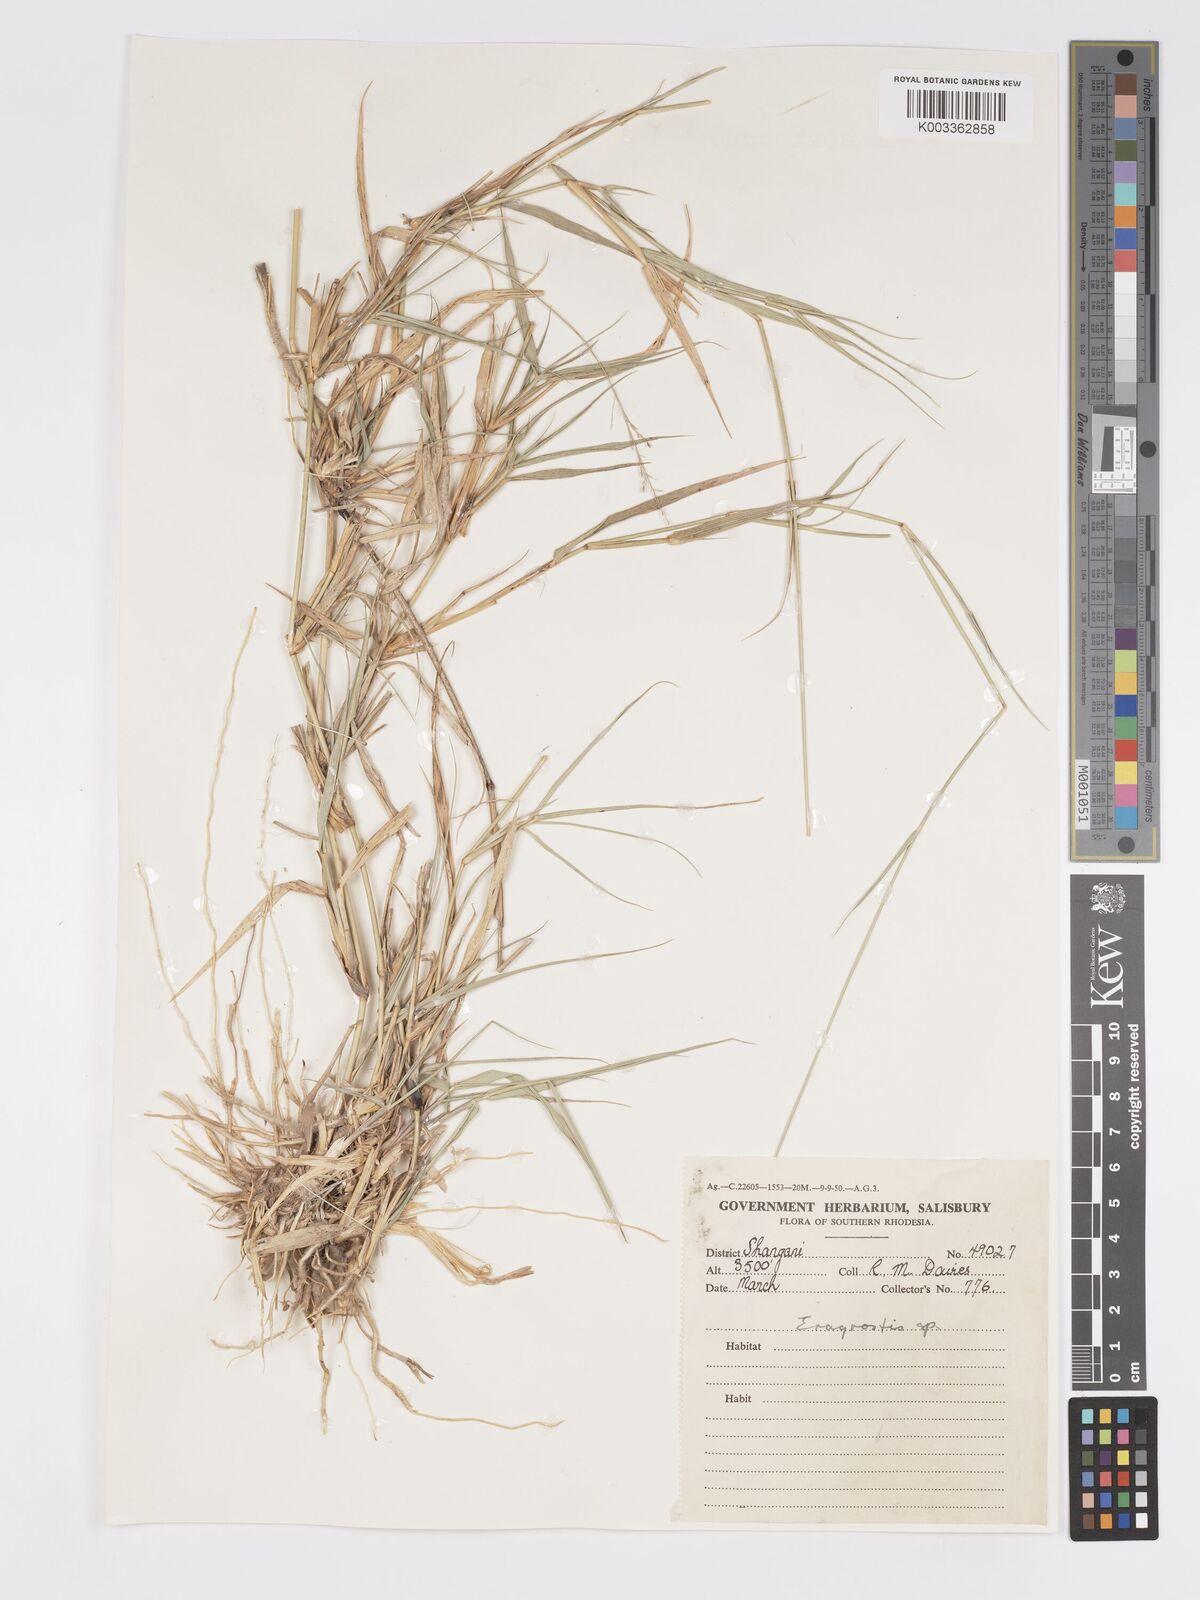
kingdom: Plantae
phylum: Tracheophyta
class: Liliopsida
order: Poales
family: Poaceae
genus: Eragrostis
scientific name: Eragrostis cylindriflora
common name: Cylinderflower lovegrass
